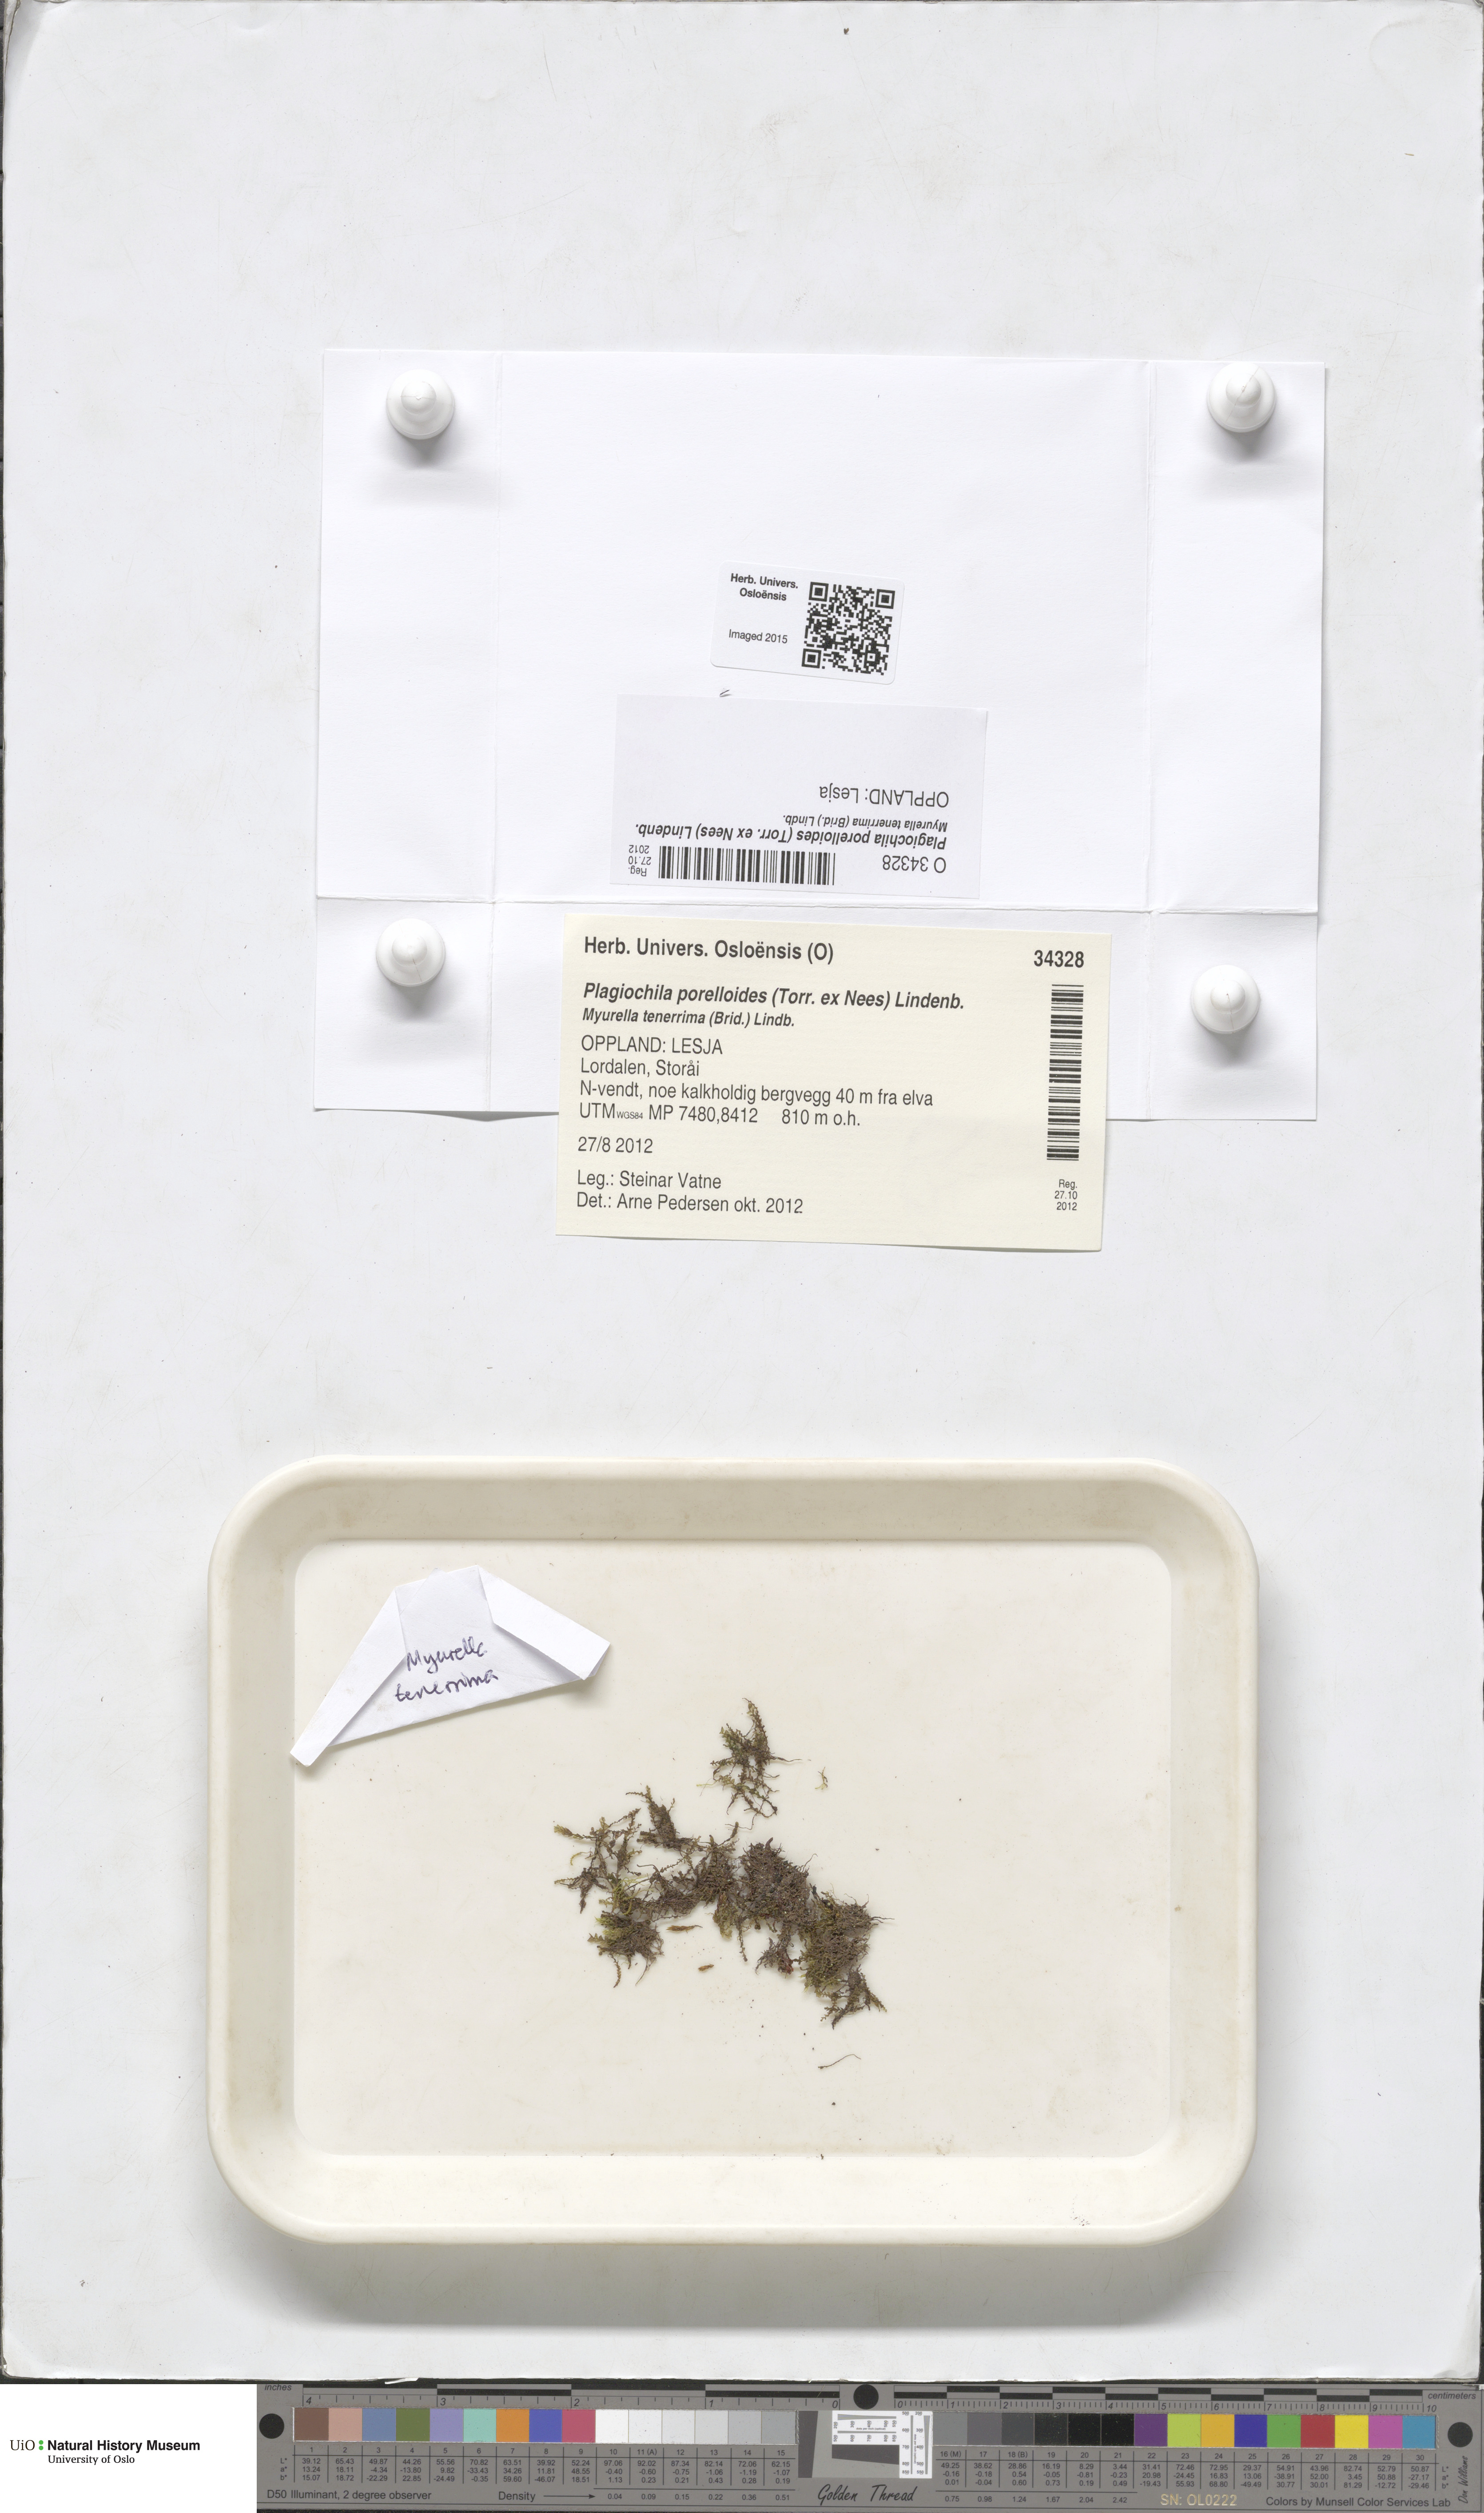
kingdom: Plantae
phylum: Marchantiophyta
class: Jungermanniopsida
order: Jungermanniales
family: Plagiochilaceae
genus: Plagiochila
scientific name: Plagiochila porelloides
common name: Lesser featherwort
